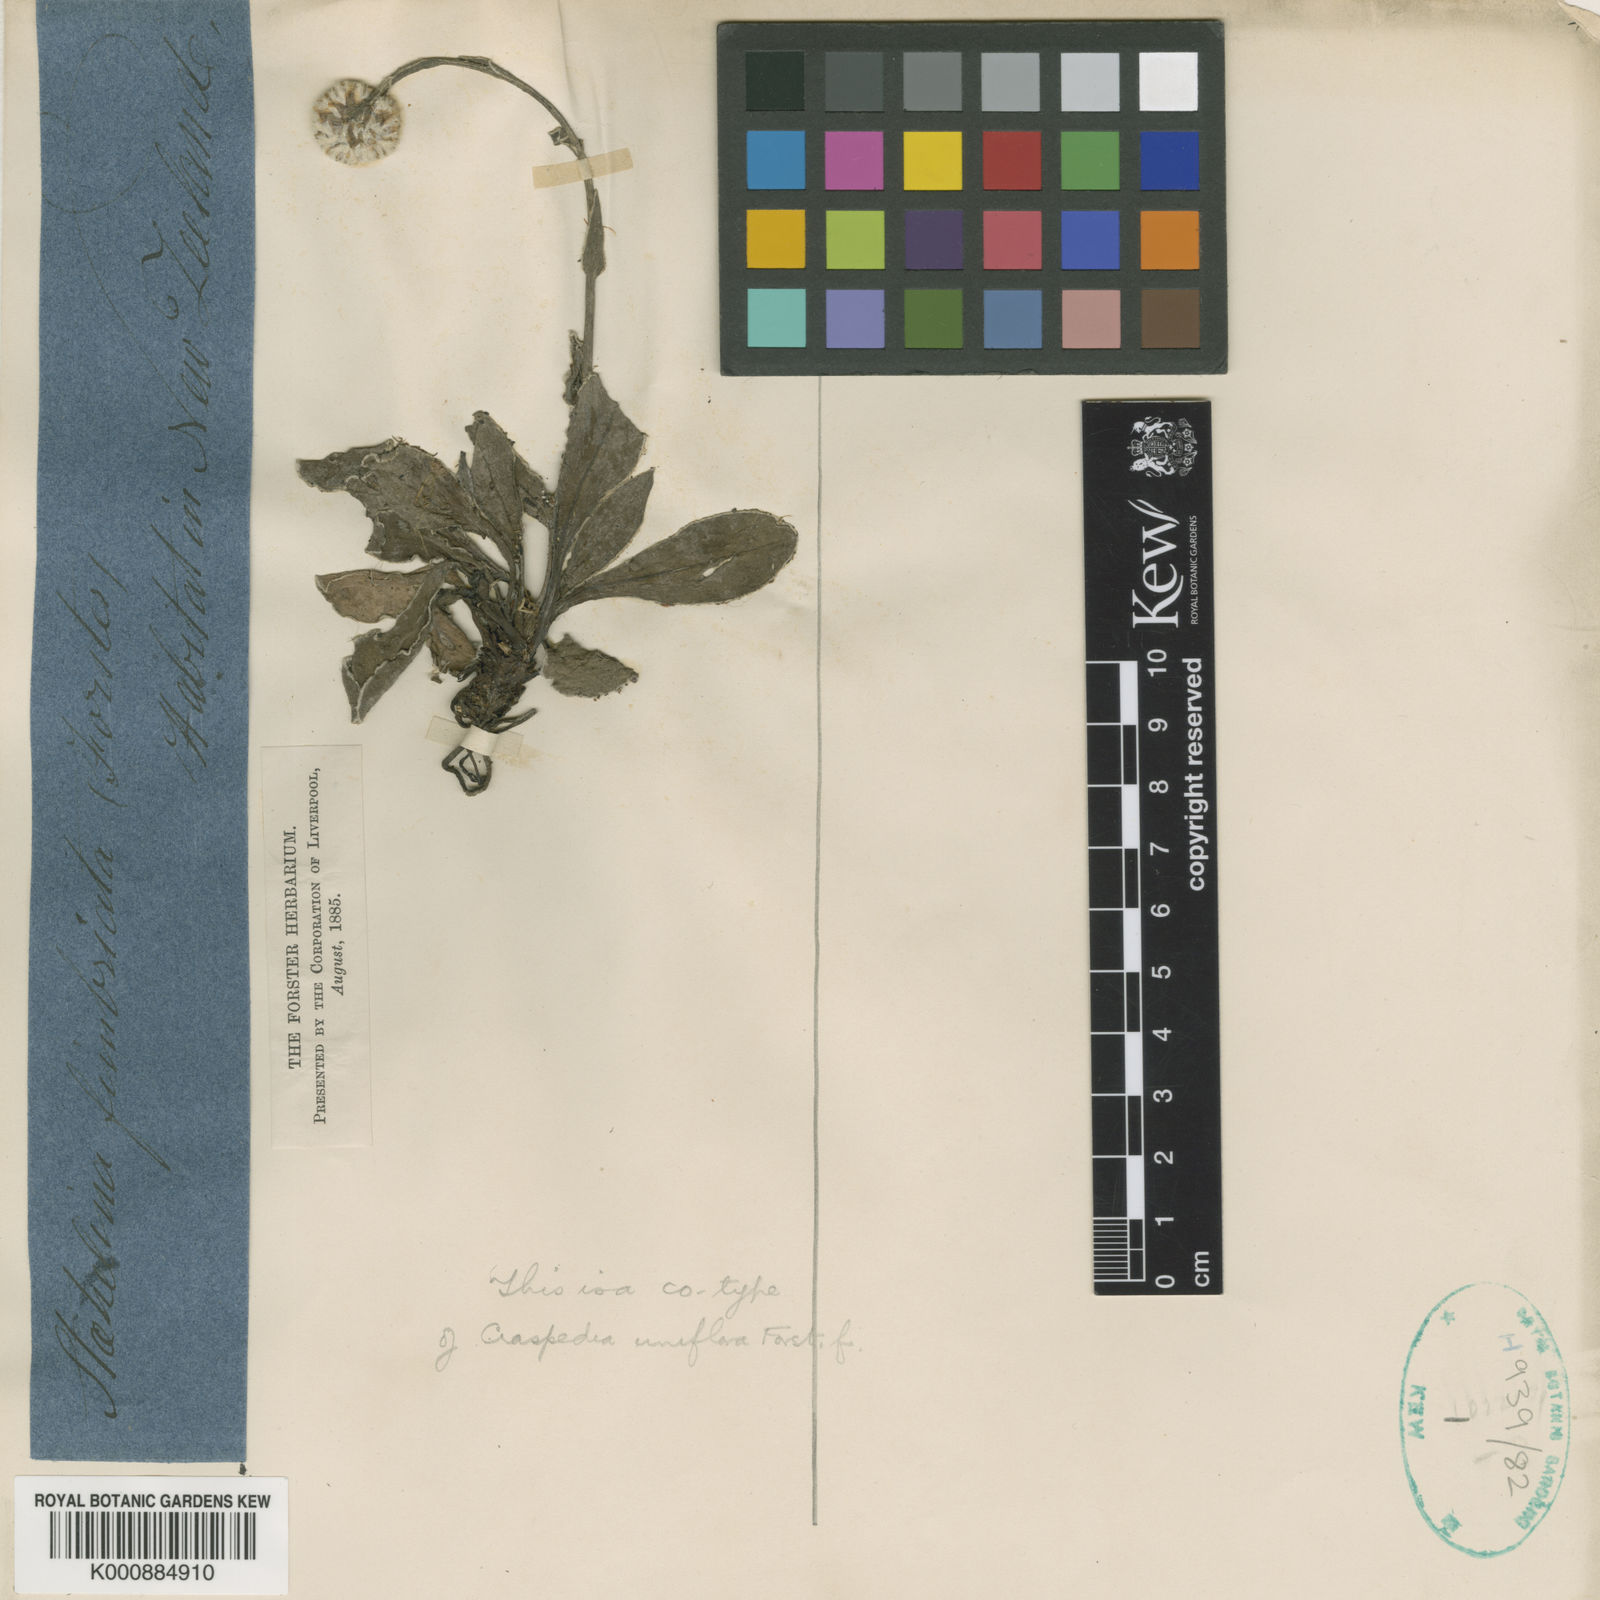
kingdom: Plantae
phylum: Tracheophyta
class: Magnoliopsida
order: Asterales
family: Asteraceae
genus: Craspedia
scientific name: Craspedia
